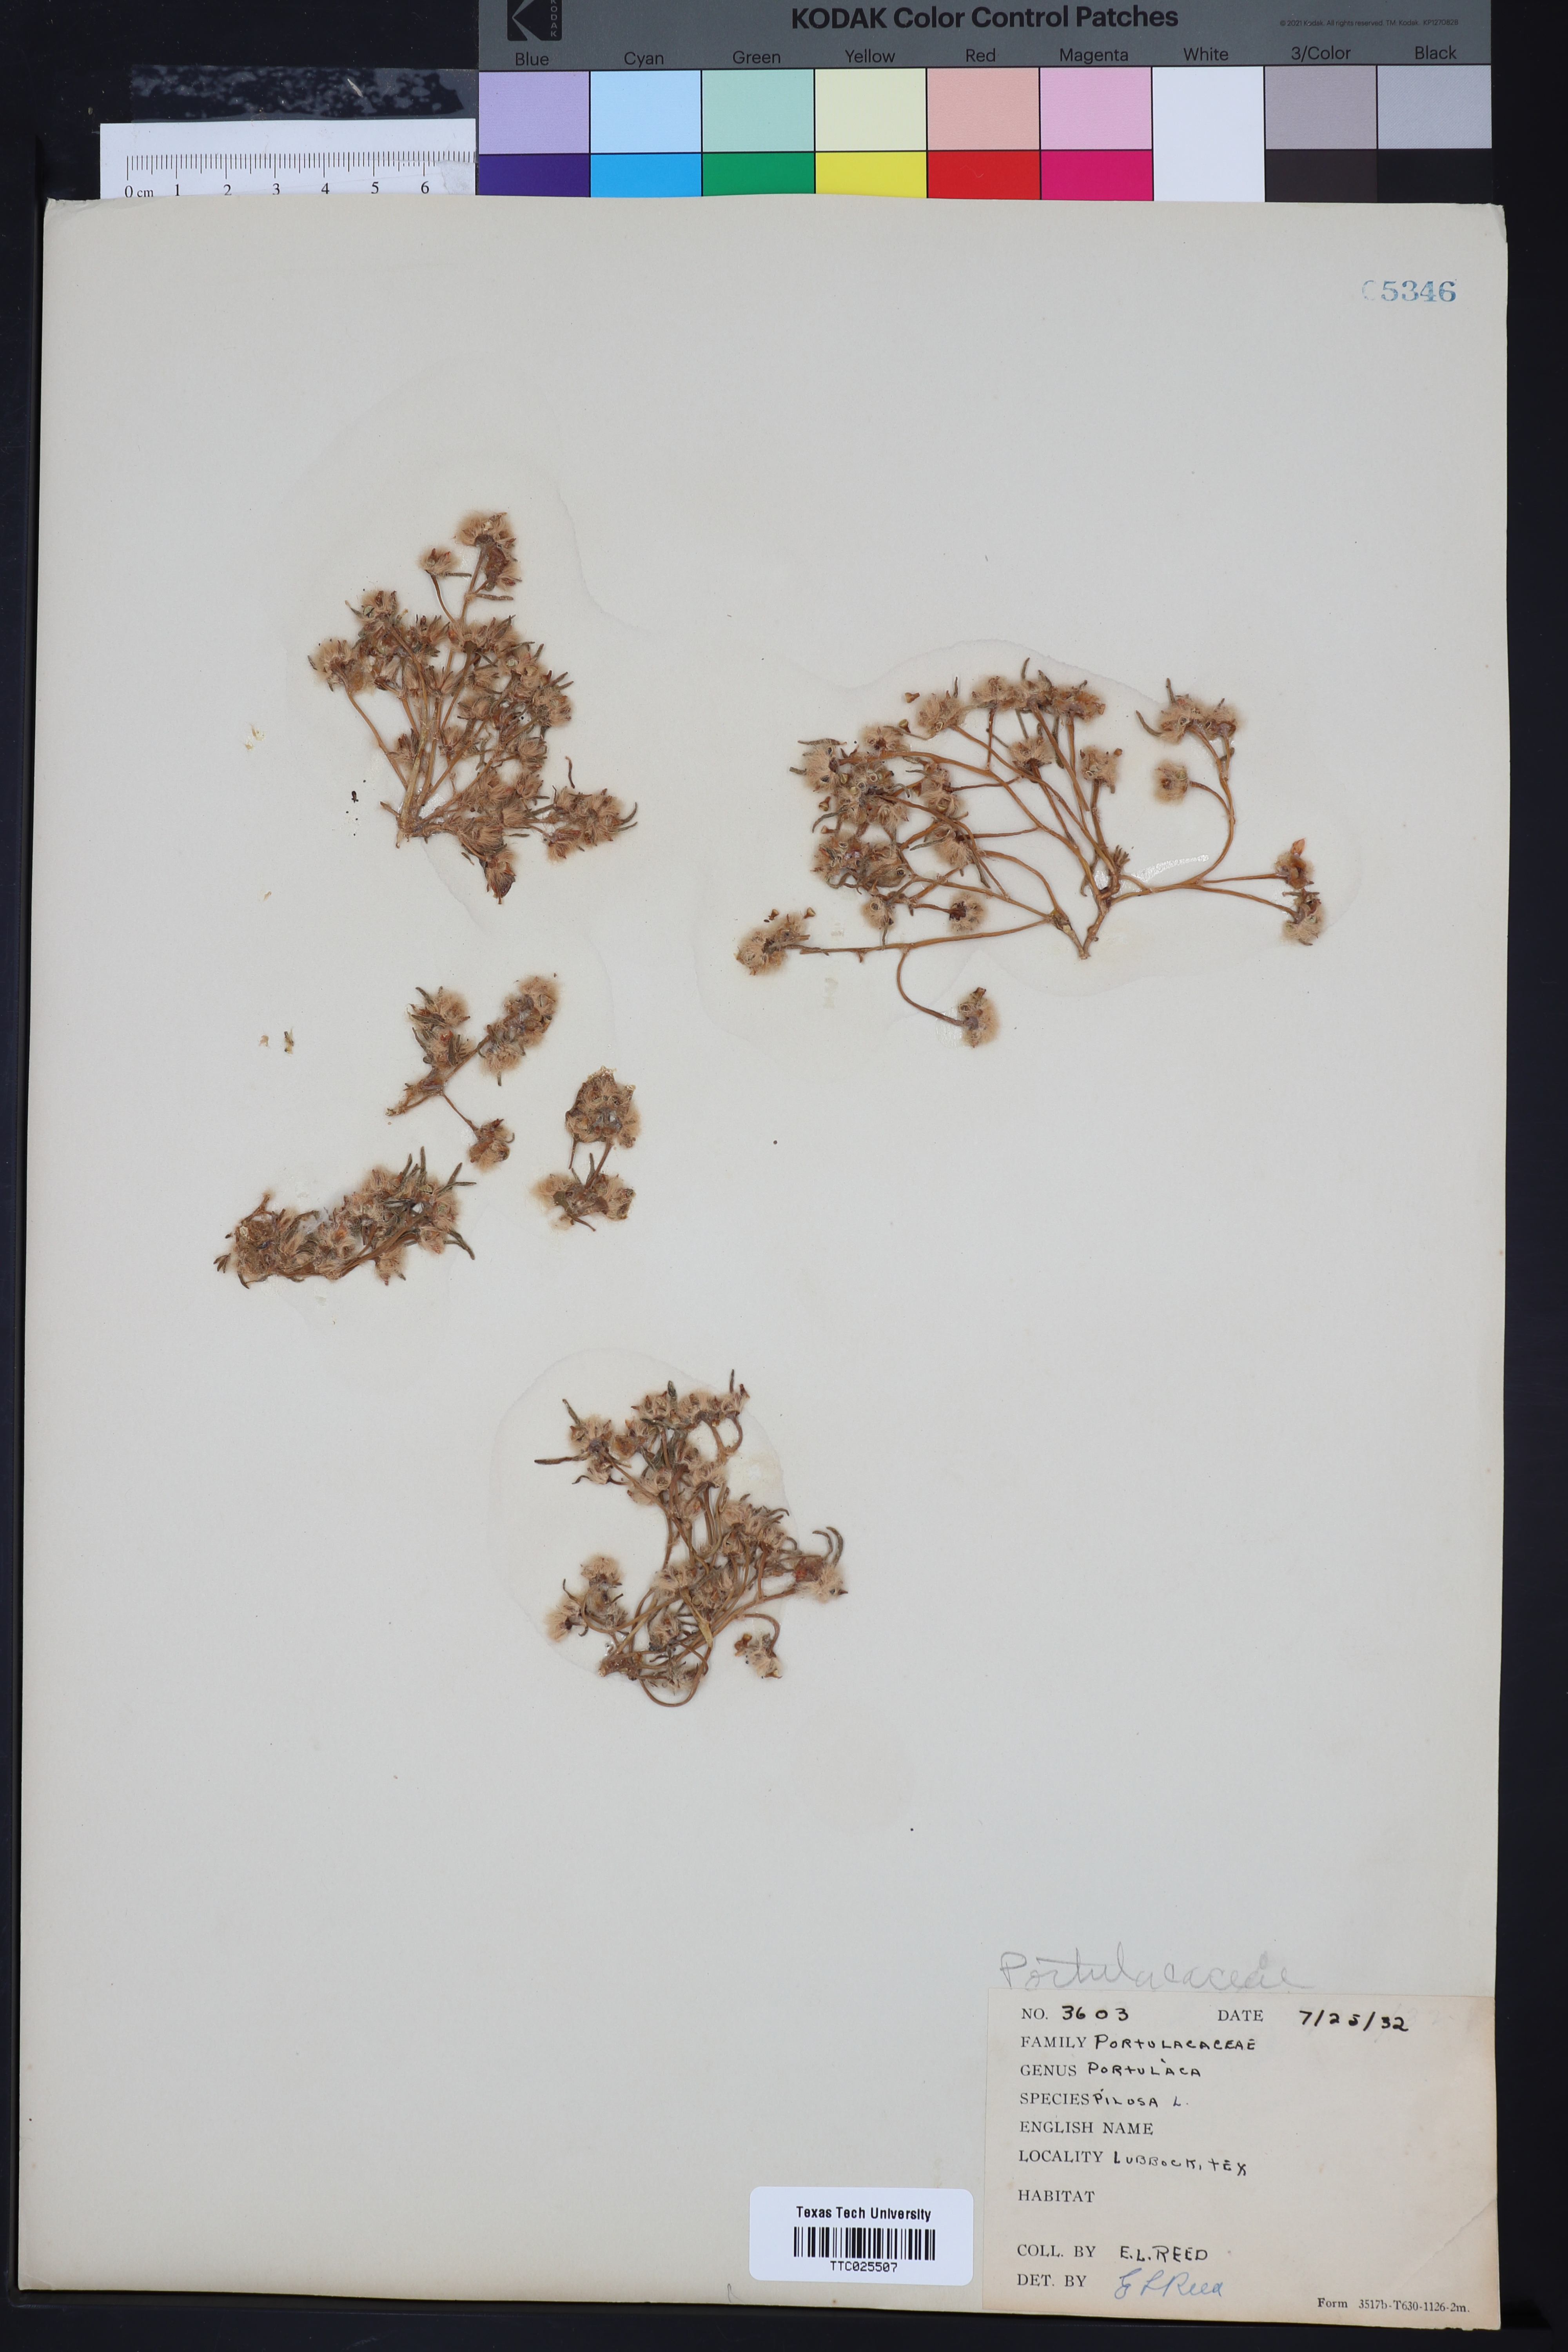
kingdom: Plantae
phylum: Tracheophyta
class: Magnoliopsida
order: Caryophyllales
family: Portulacaceae
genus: Portulaca
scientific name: Portulaca pilosa
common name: Kiss me quick
